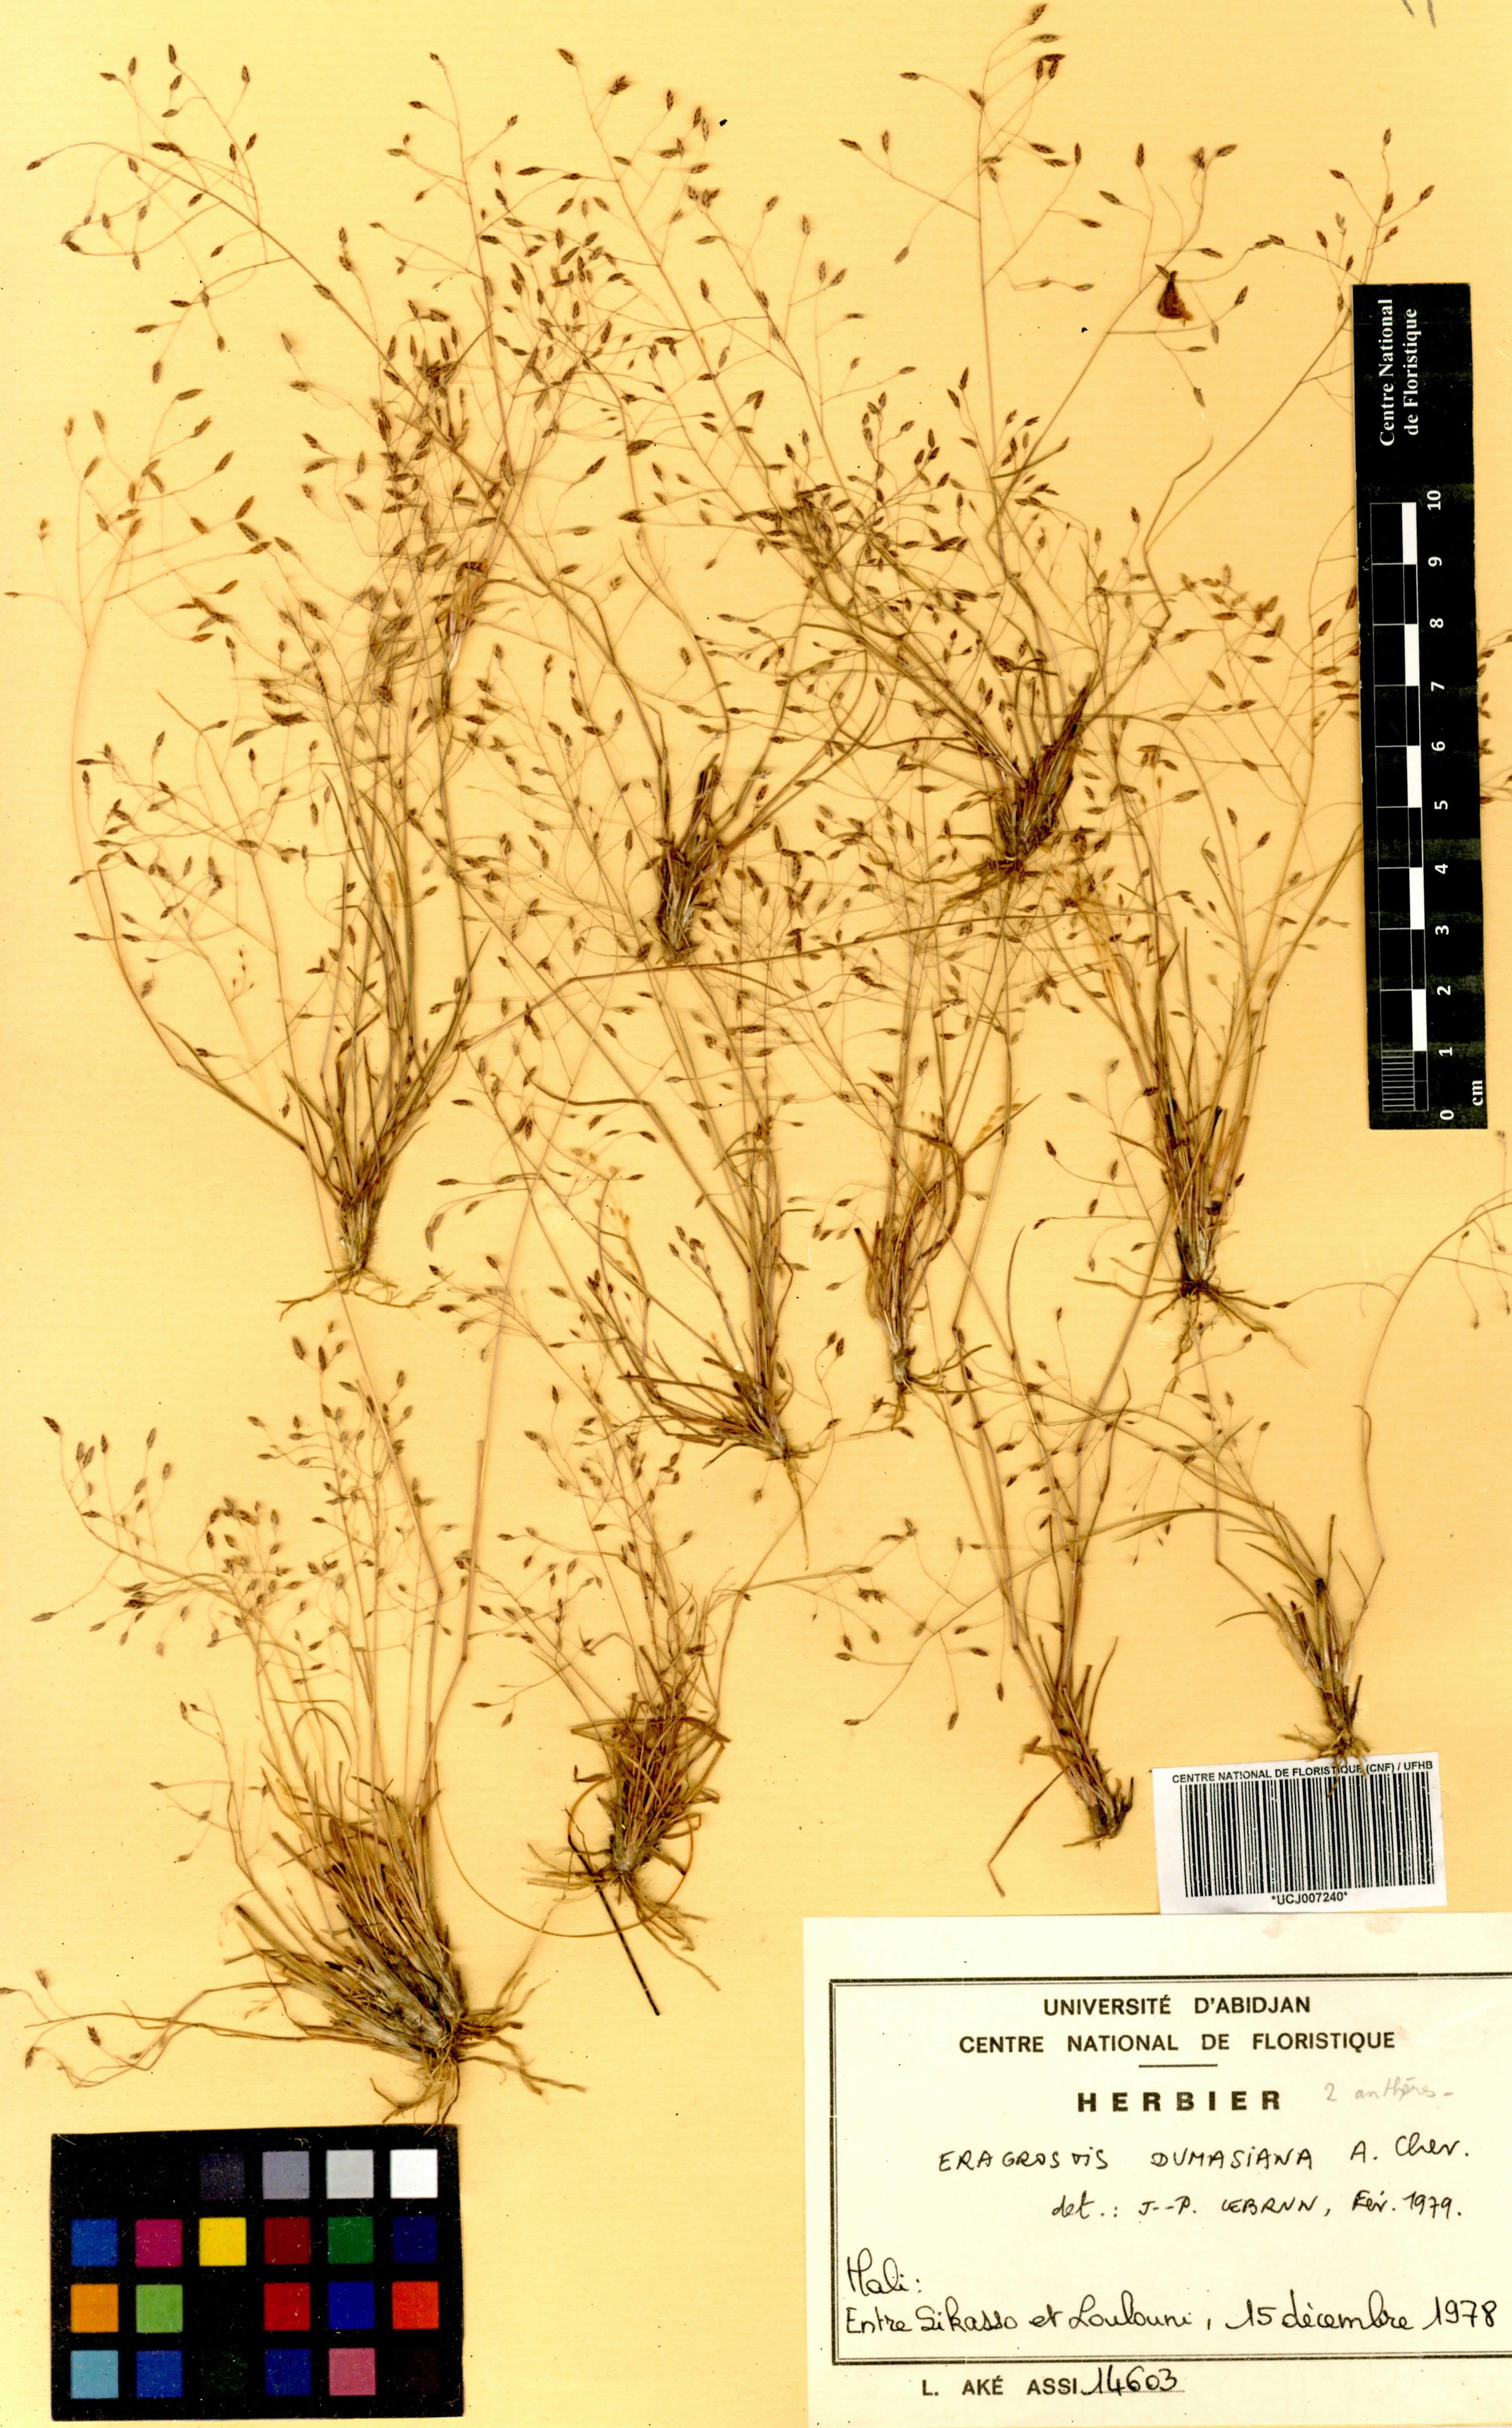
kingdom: Plantae
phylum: Tracheophyta
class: Liliopsida
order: Poales
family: Poaceae
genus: Eragrostis
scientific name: Eragrostis gangetica
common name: Slimflower lovegrass
